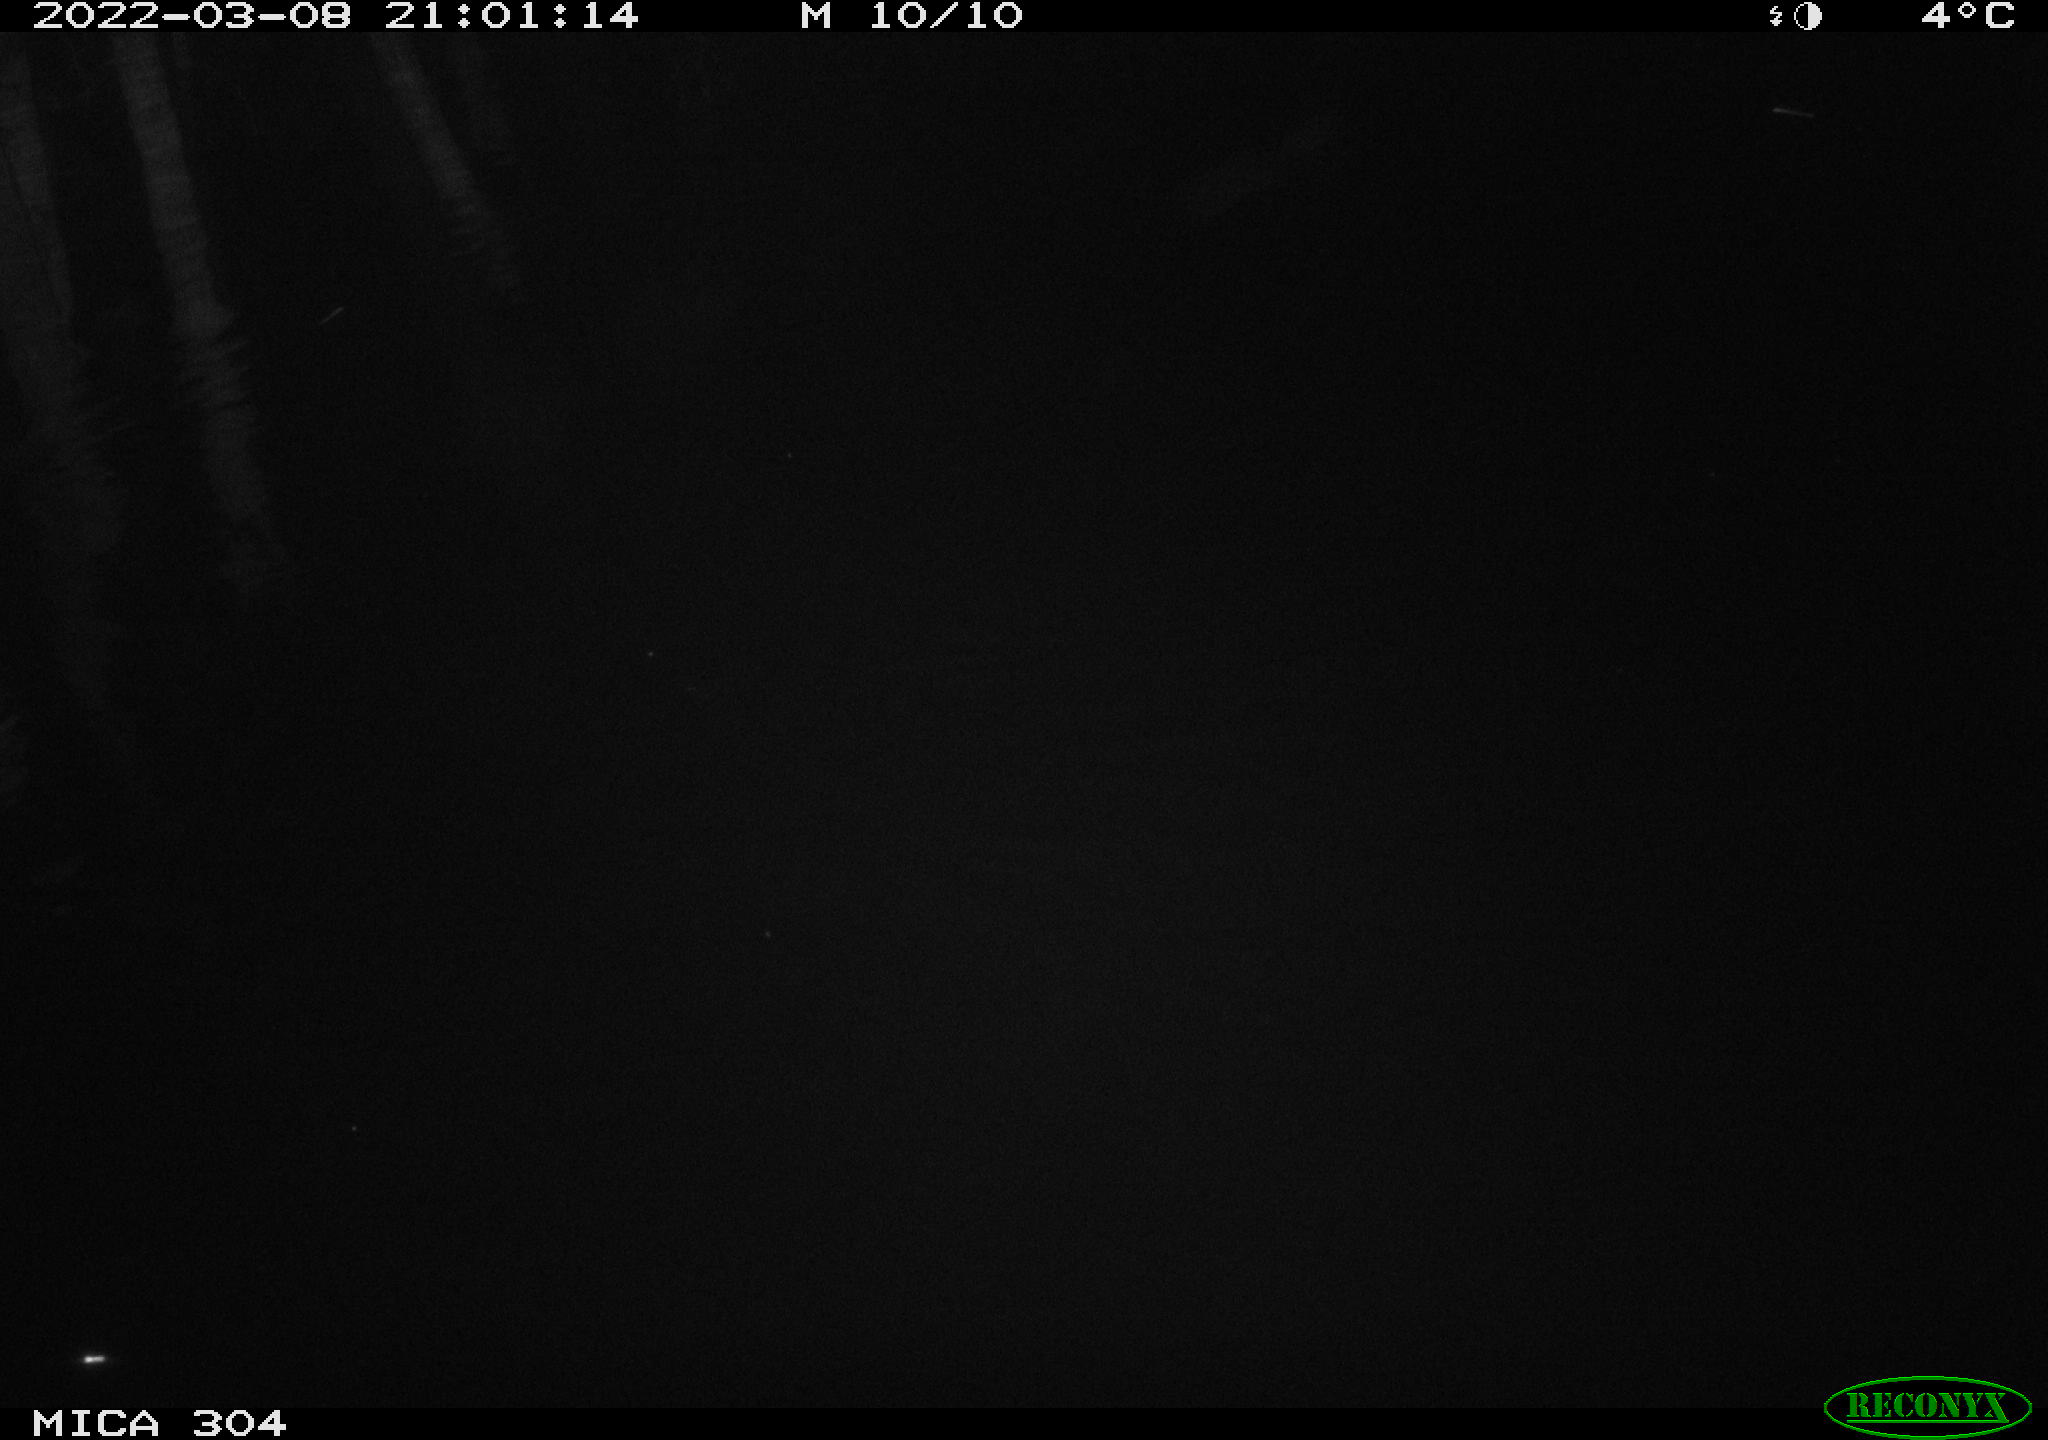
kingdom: Animalia
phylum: Chordata
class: Mammalia
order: Rodentia
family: Muridae
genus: Rattus
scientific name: Rattus norvegicus
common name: Brown rat
